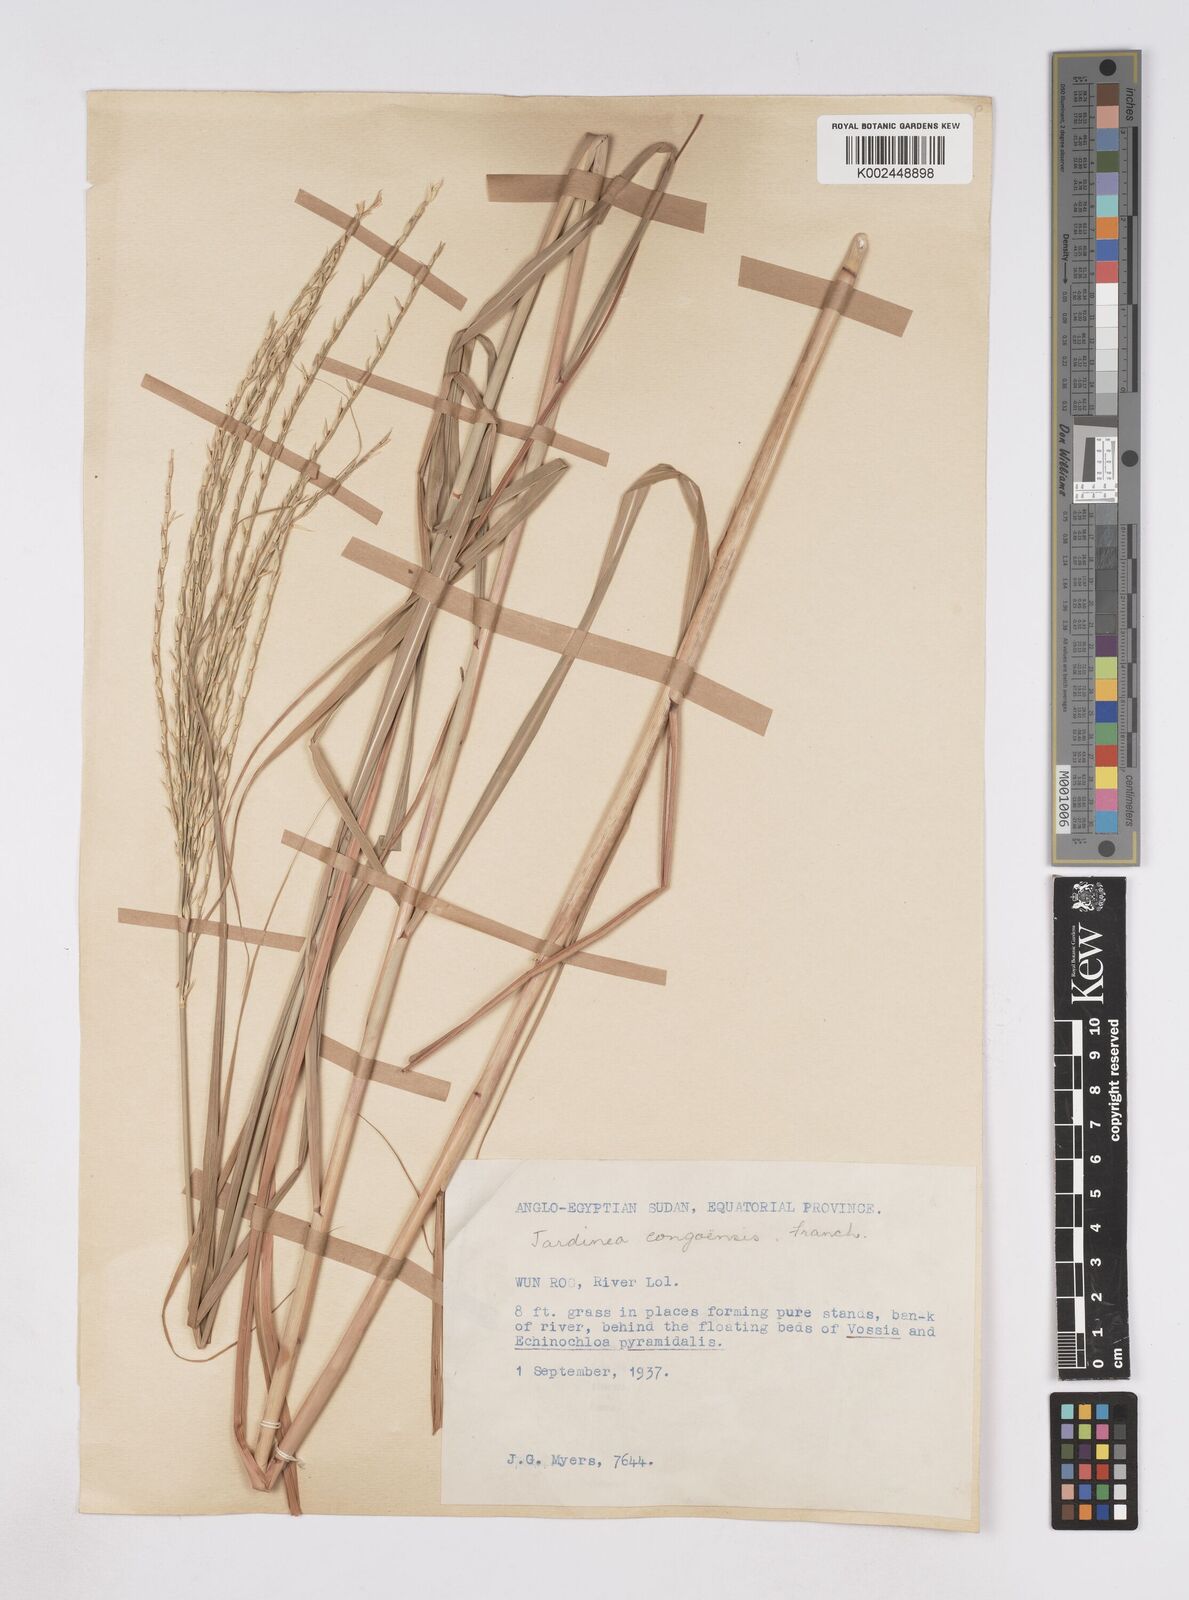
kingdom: Plantae
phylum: Tracheophyta
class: Liliopsida
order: Poales
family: Poaceae
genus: Phacelurus
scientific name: Phacelurus gabonensis
